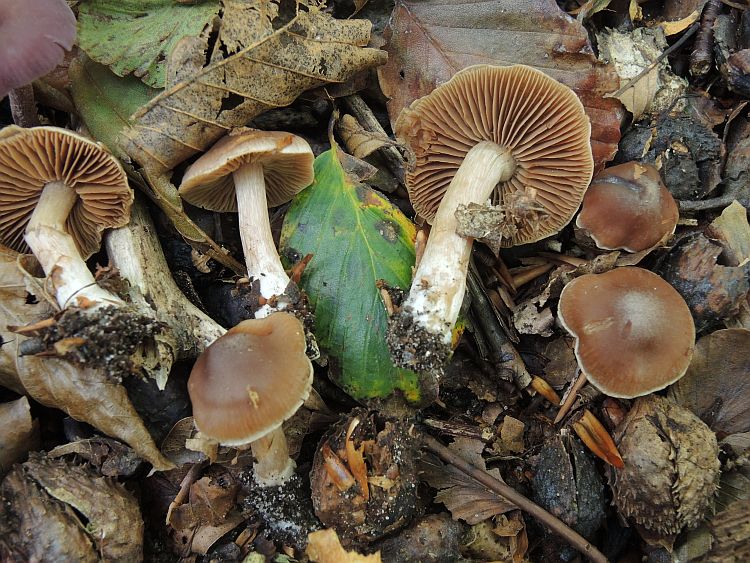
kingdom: Fungi
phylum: Basidiomycota
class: Agaricomycetes
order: Agaricales
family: Cortinariaceae
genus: Cortinarius
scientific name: Cortinarius
